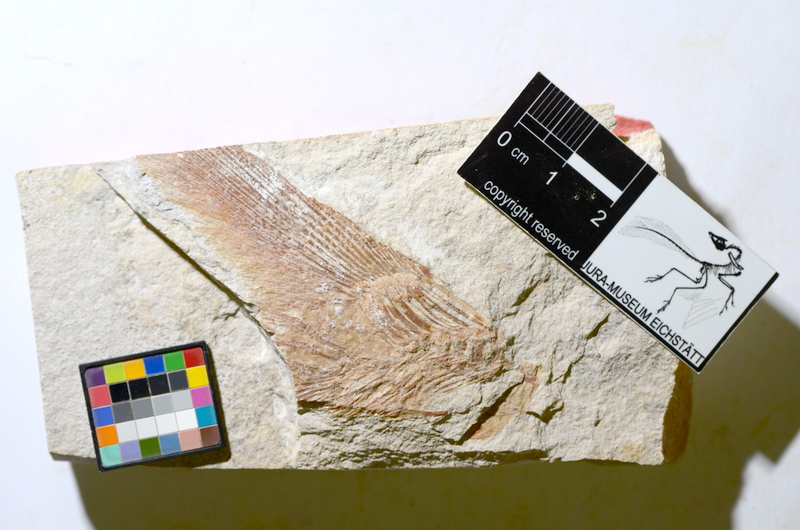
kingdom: Animalia
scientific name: Animalia
